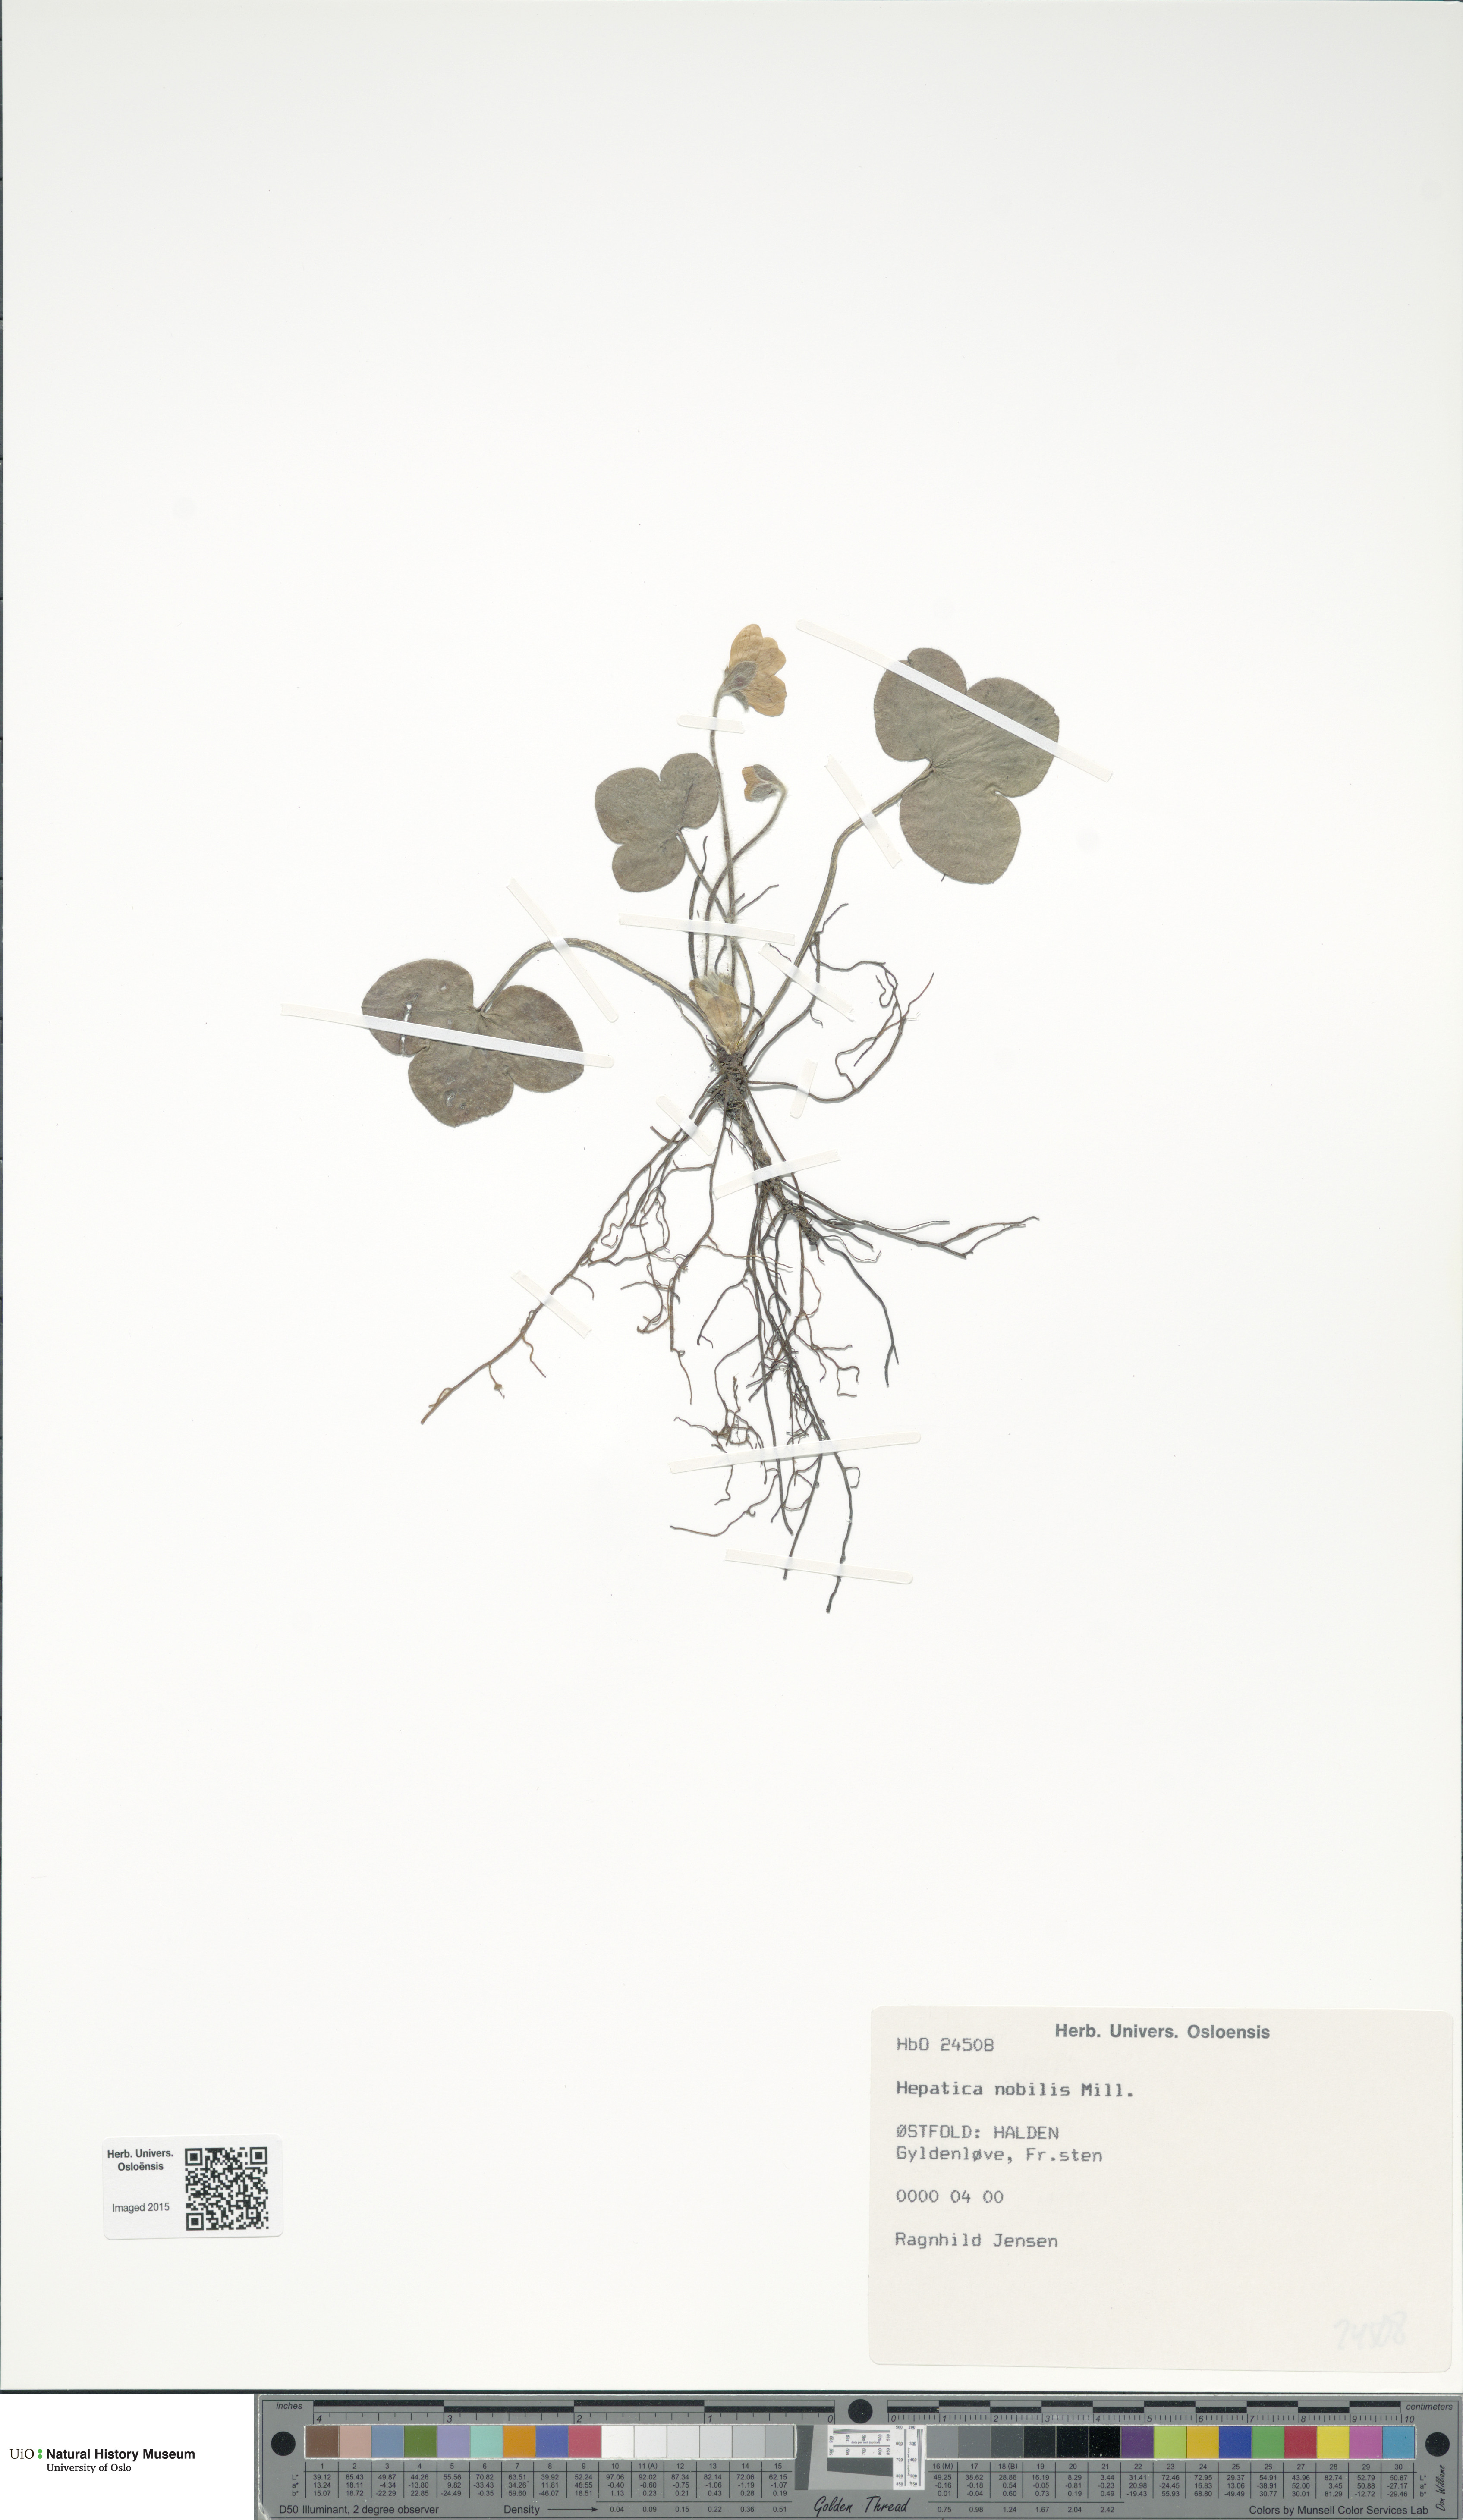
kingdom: Plantae
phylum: Tracheophyta
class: Magnoliopsida
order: Ranunculales
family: Ranunculaceae
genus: Hepatica
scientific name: Hepatica nobilis
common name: Liverleaf
